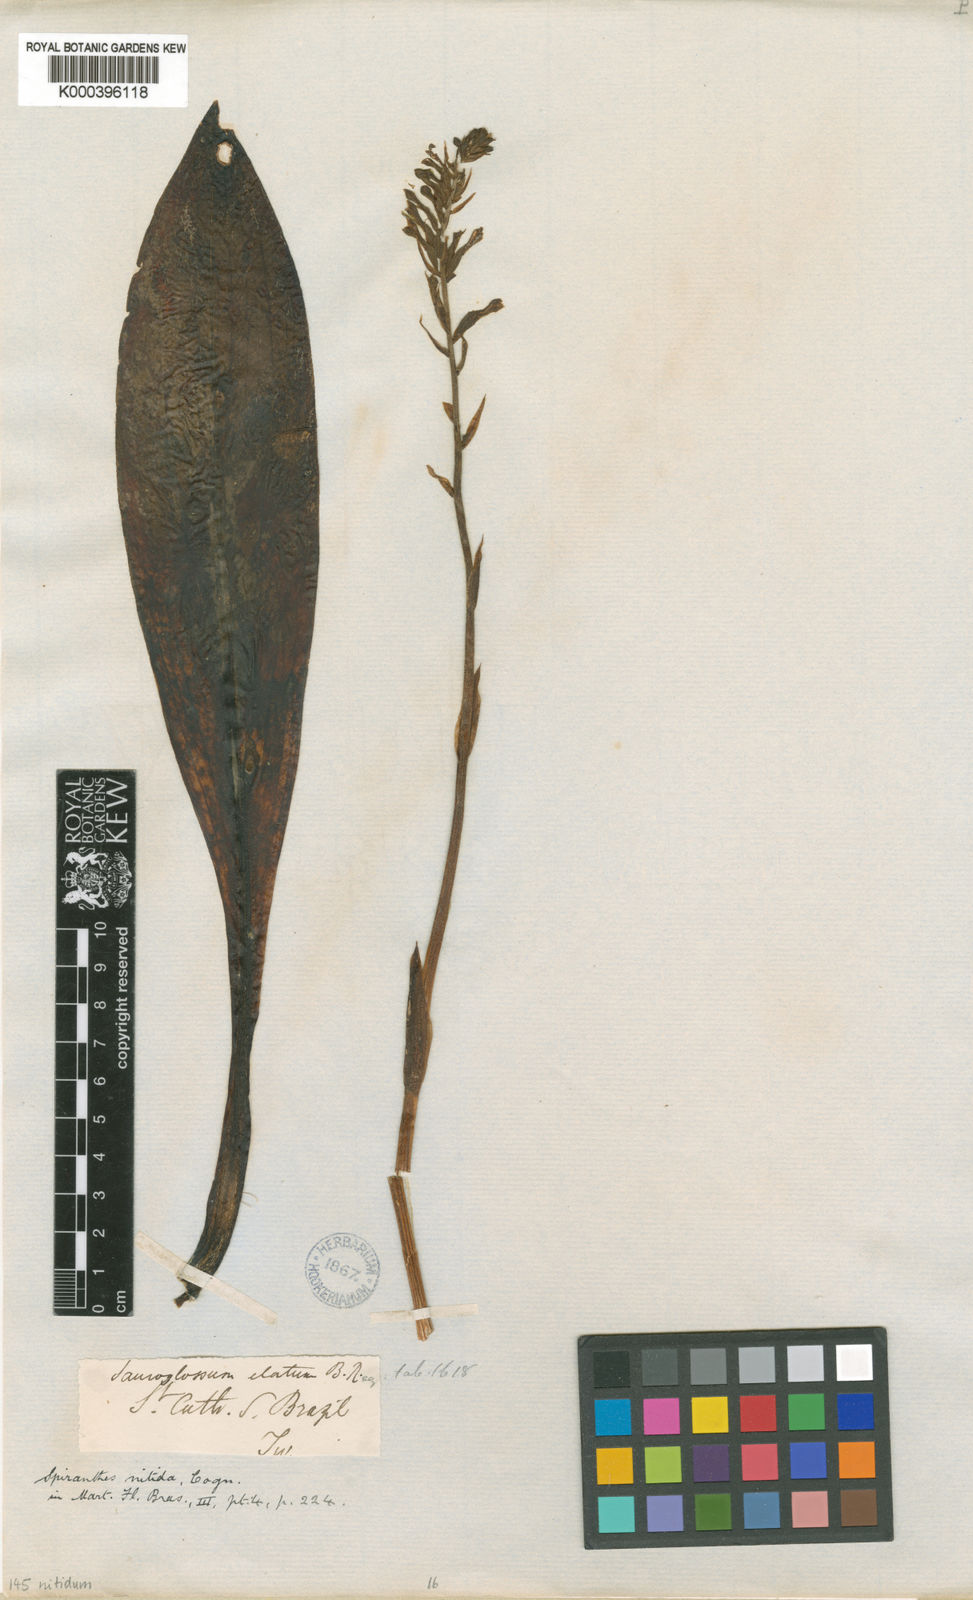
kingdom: Plantae
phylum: Tracheophyta
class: Liliopsida
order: Asparagales
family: Orchidaceae
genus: Sauroglossum
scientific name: Sauroglossum elatum
